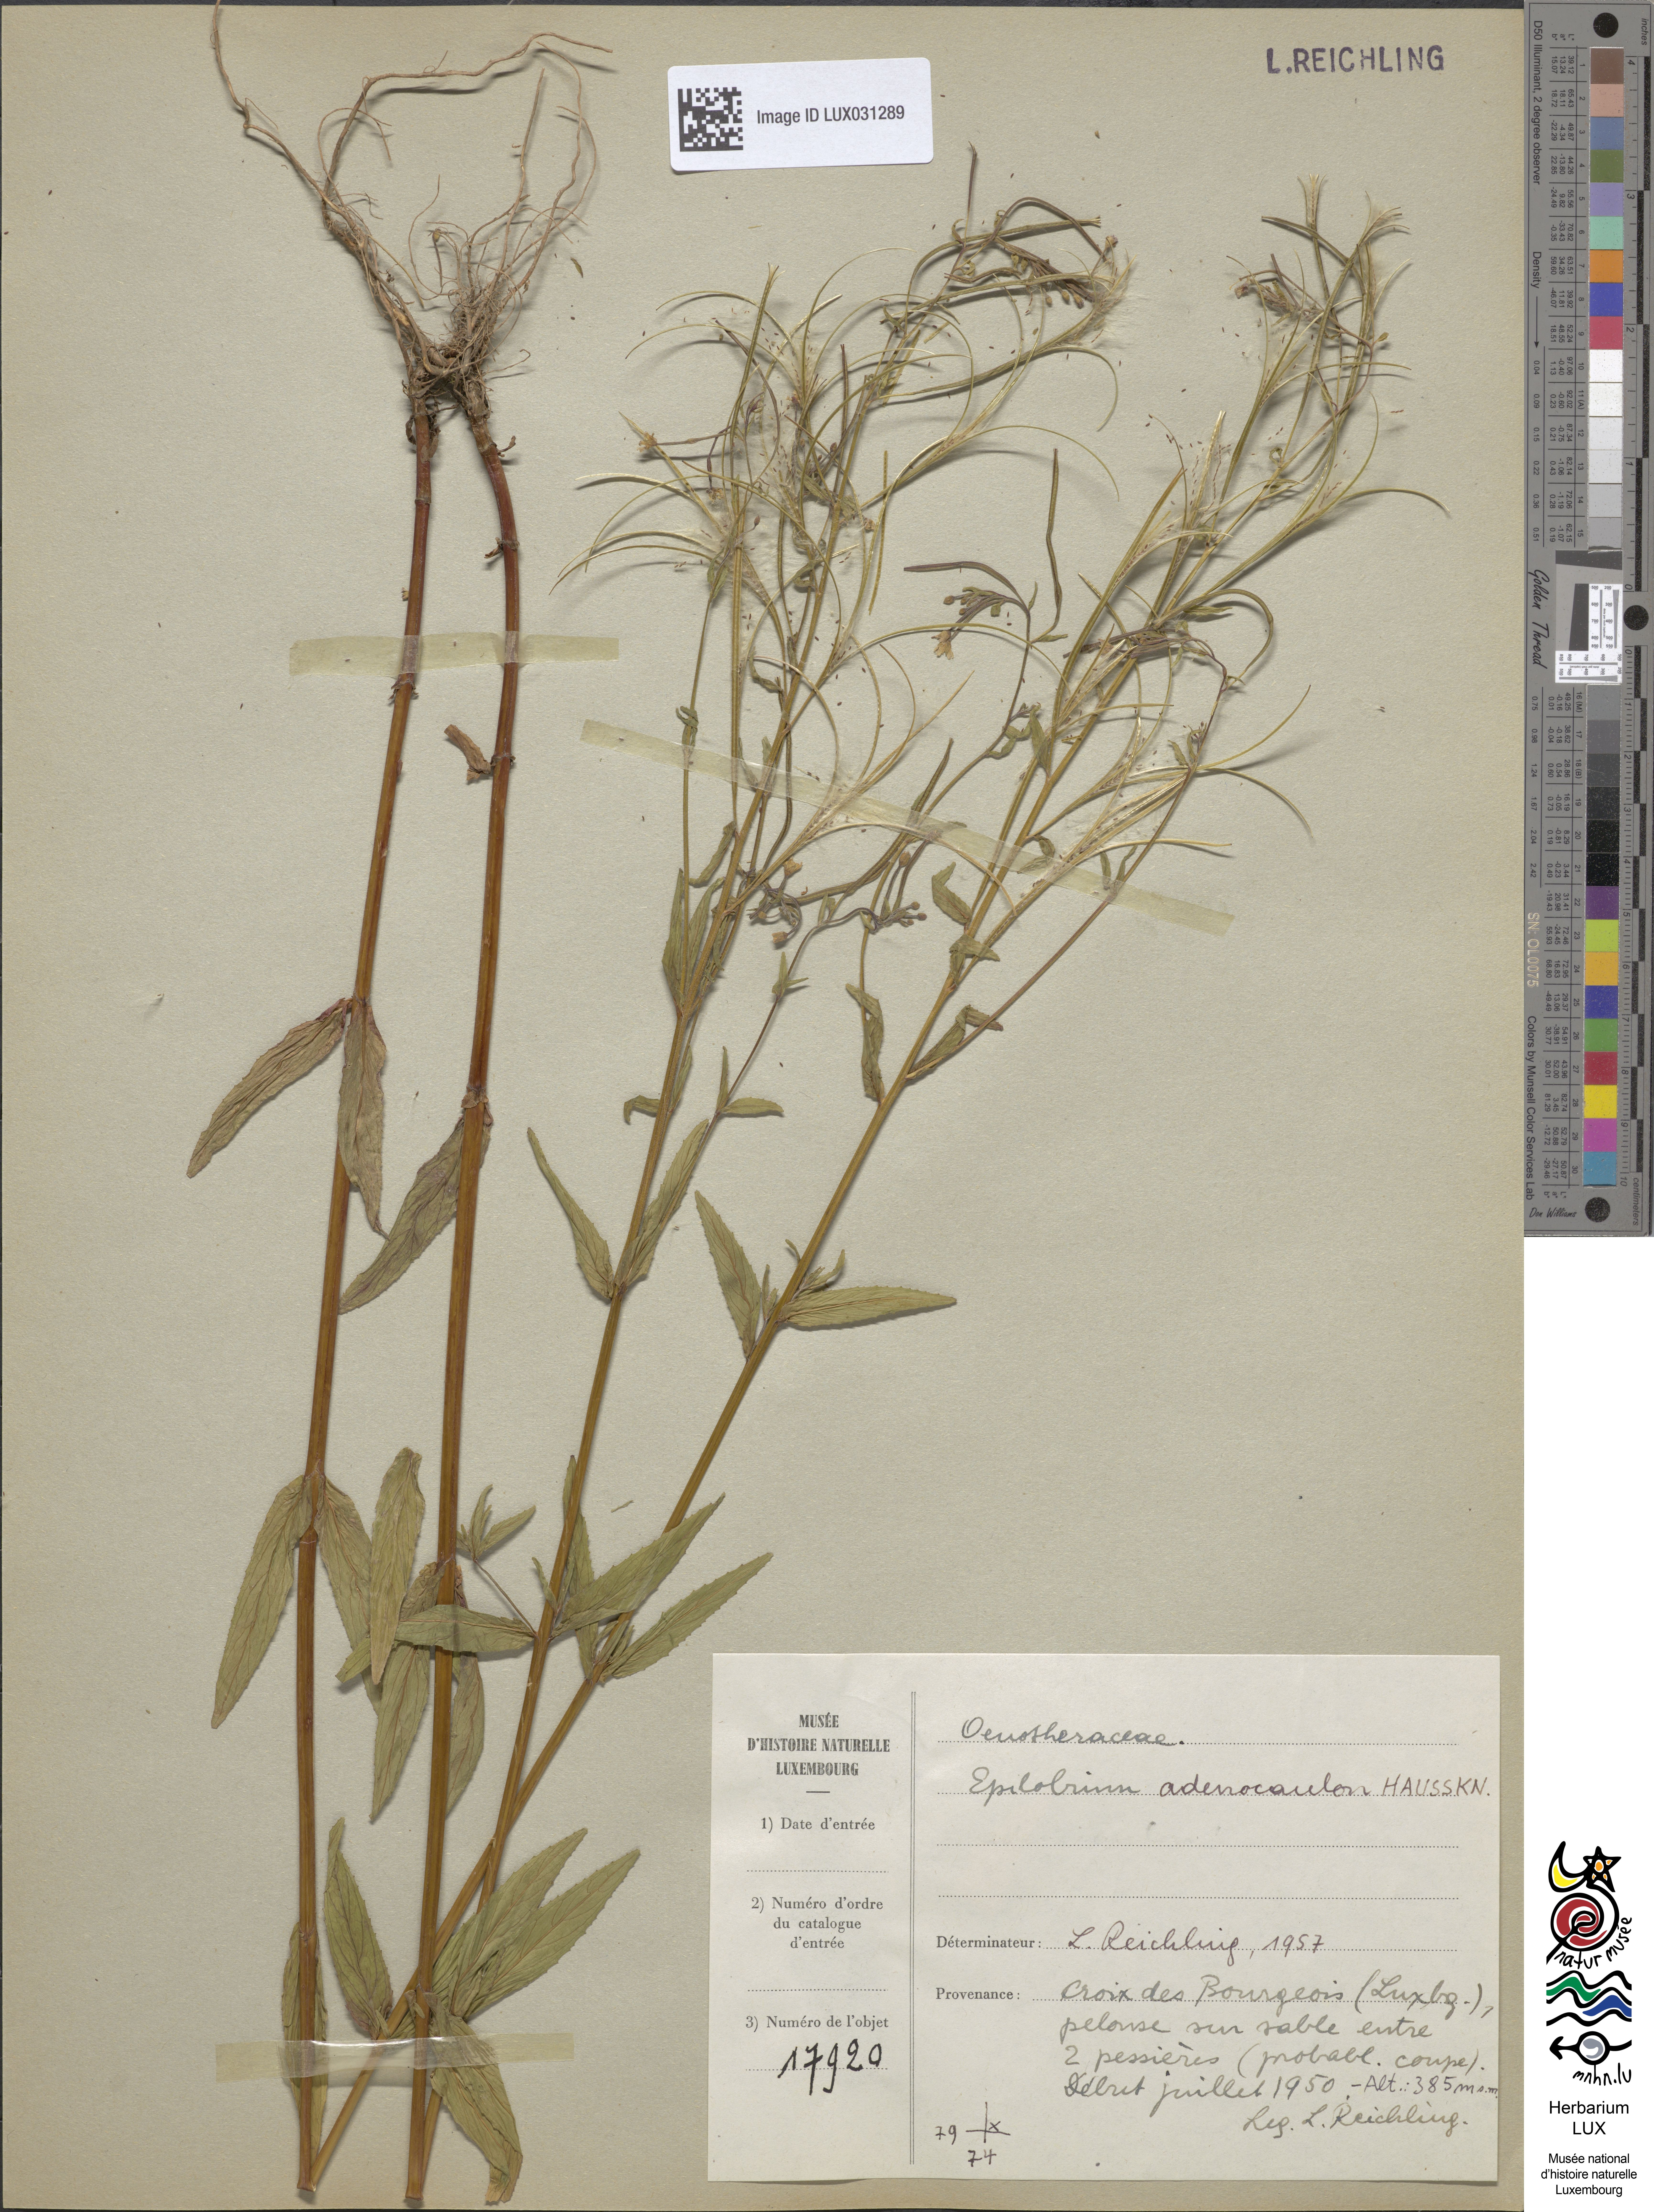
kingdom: Plantae
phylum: Tracheophyta
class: Magnoliopsida
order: Myrtales
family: Onagraceae
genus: Epilobium
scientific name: Epilobium ciliatum
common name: American willowherb
